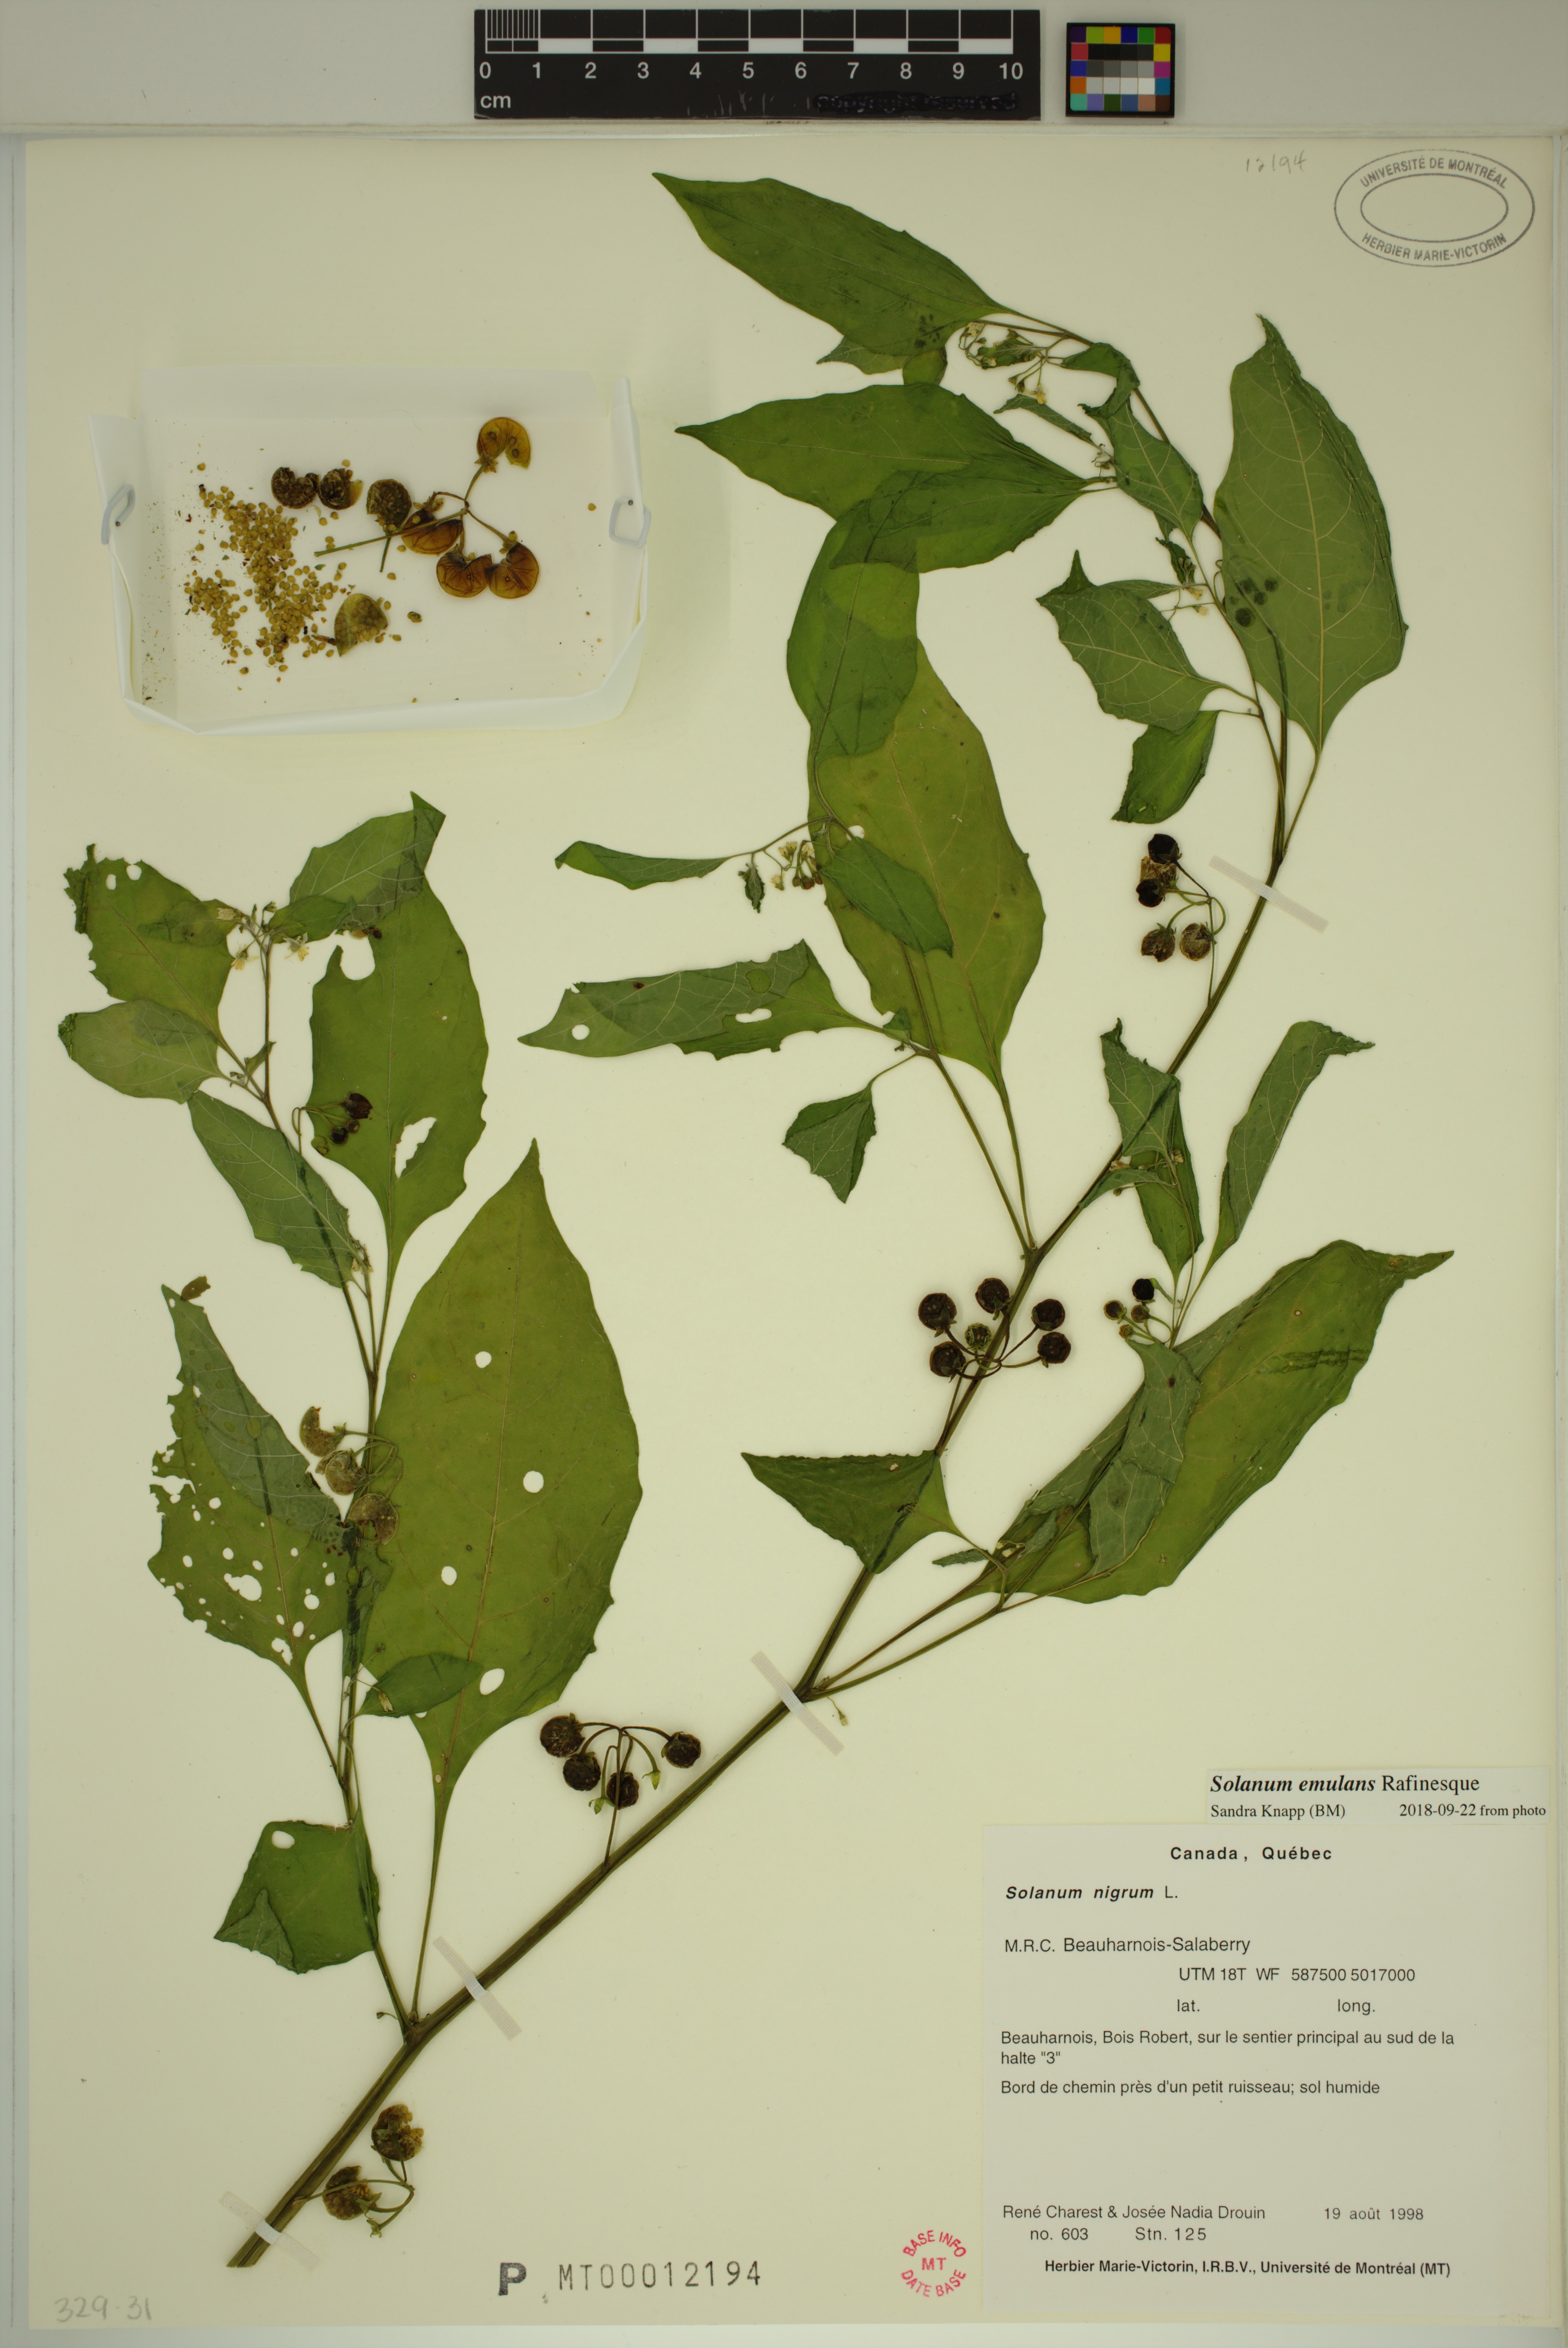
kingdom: Plantae
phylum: Tracheophyta
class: Magnoliopsida
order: Solanales
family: Solanaceae
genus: Solanum
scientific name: Solanum emulans
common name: Eastern black nightshade
